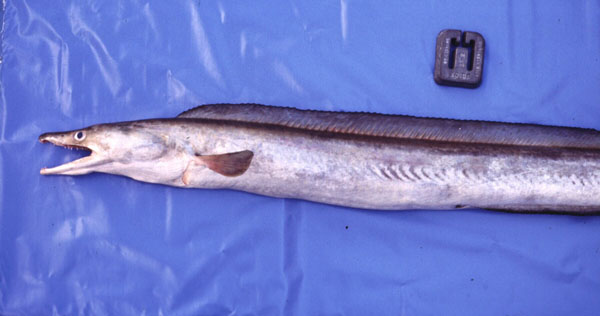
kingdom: Animalia
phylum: Chordata
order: Anguilliformes
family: Muraenesocidae
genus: Muraenesox
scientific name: Muraenesox bagio
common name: Common pike conger
